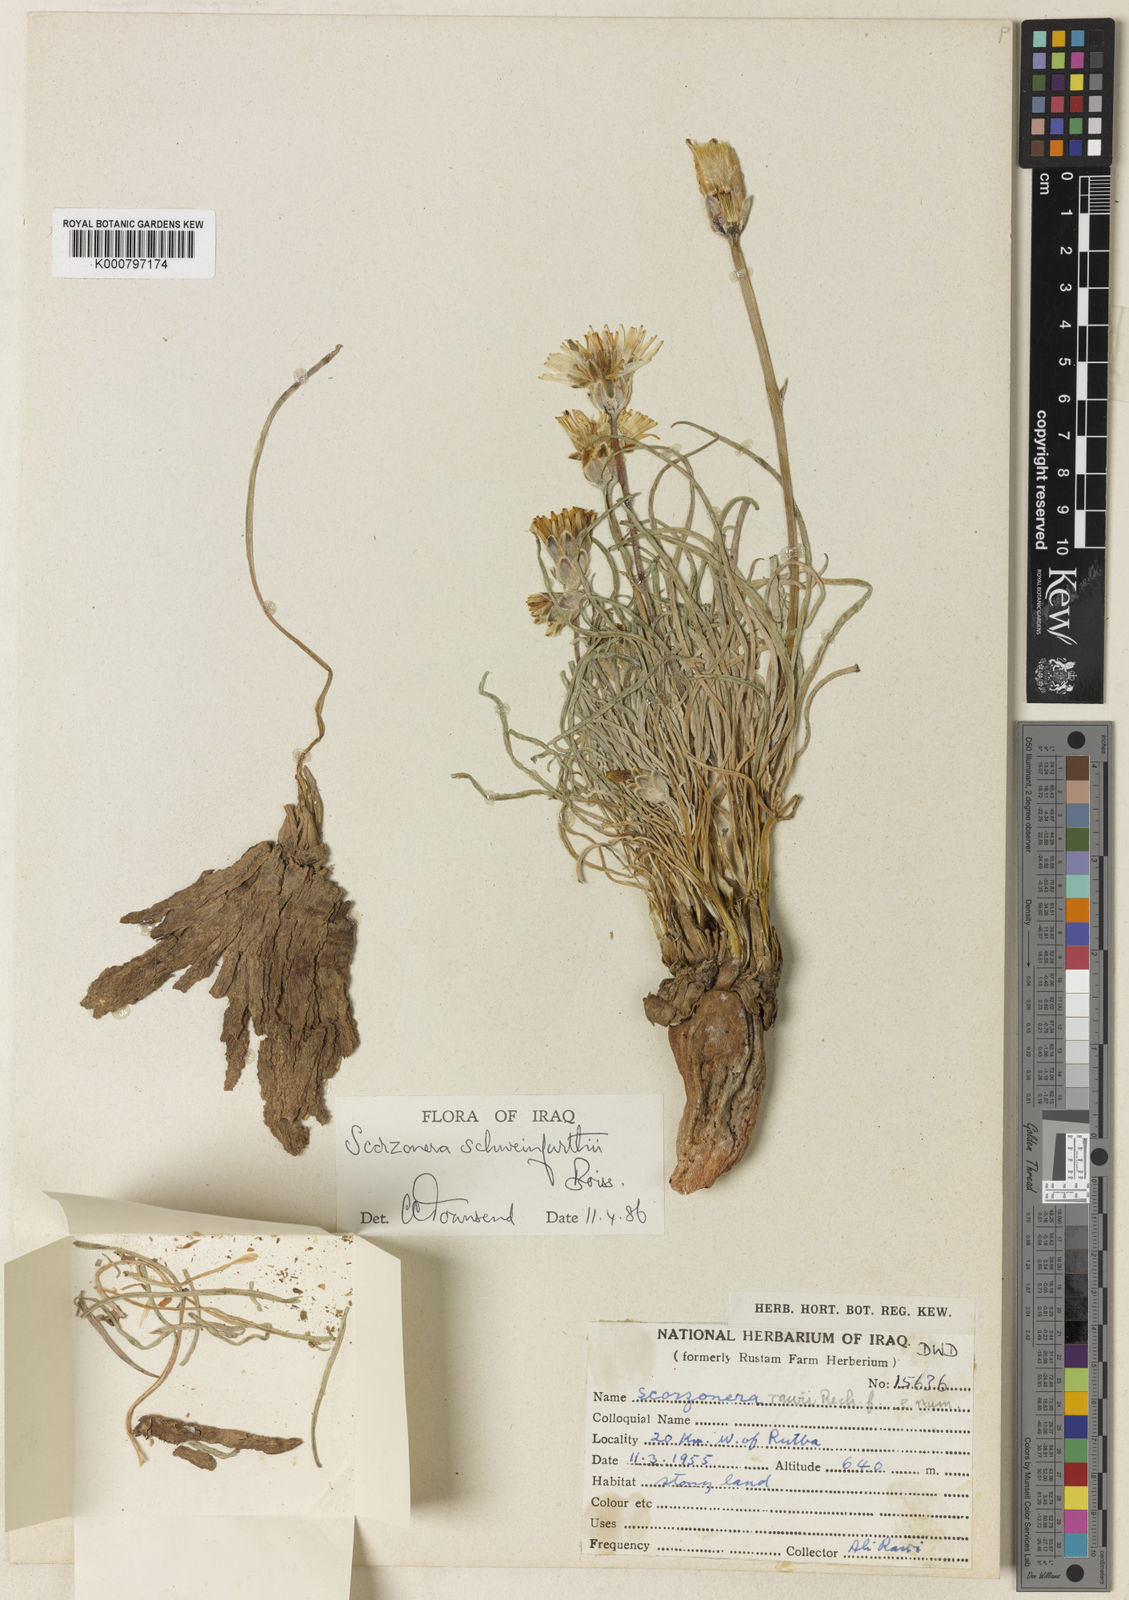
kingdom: Plantae
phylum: Tracheophyta
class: Magnoliopsida
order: Asterales
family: Asteraceae
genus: Scorzonera
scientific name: Scorzonera schweinfurthii
